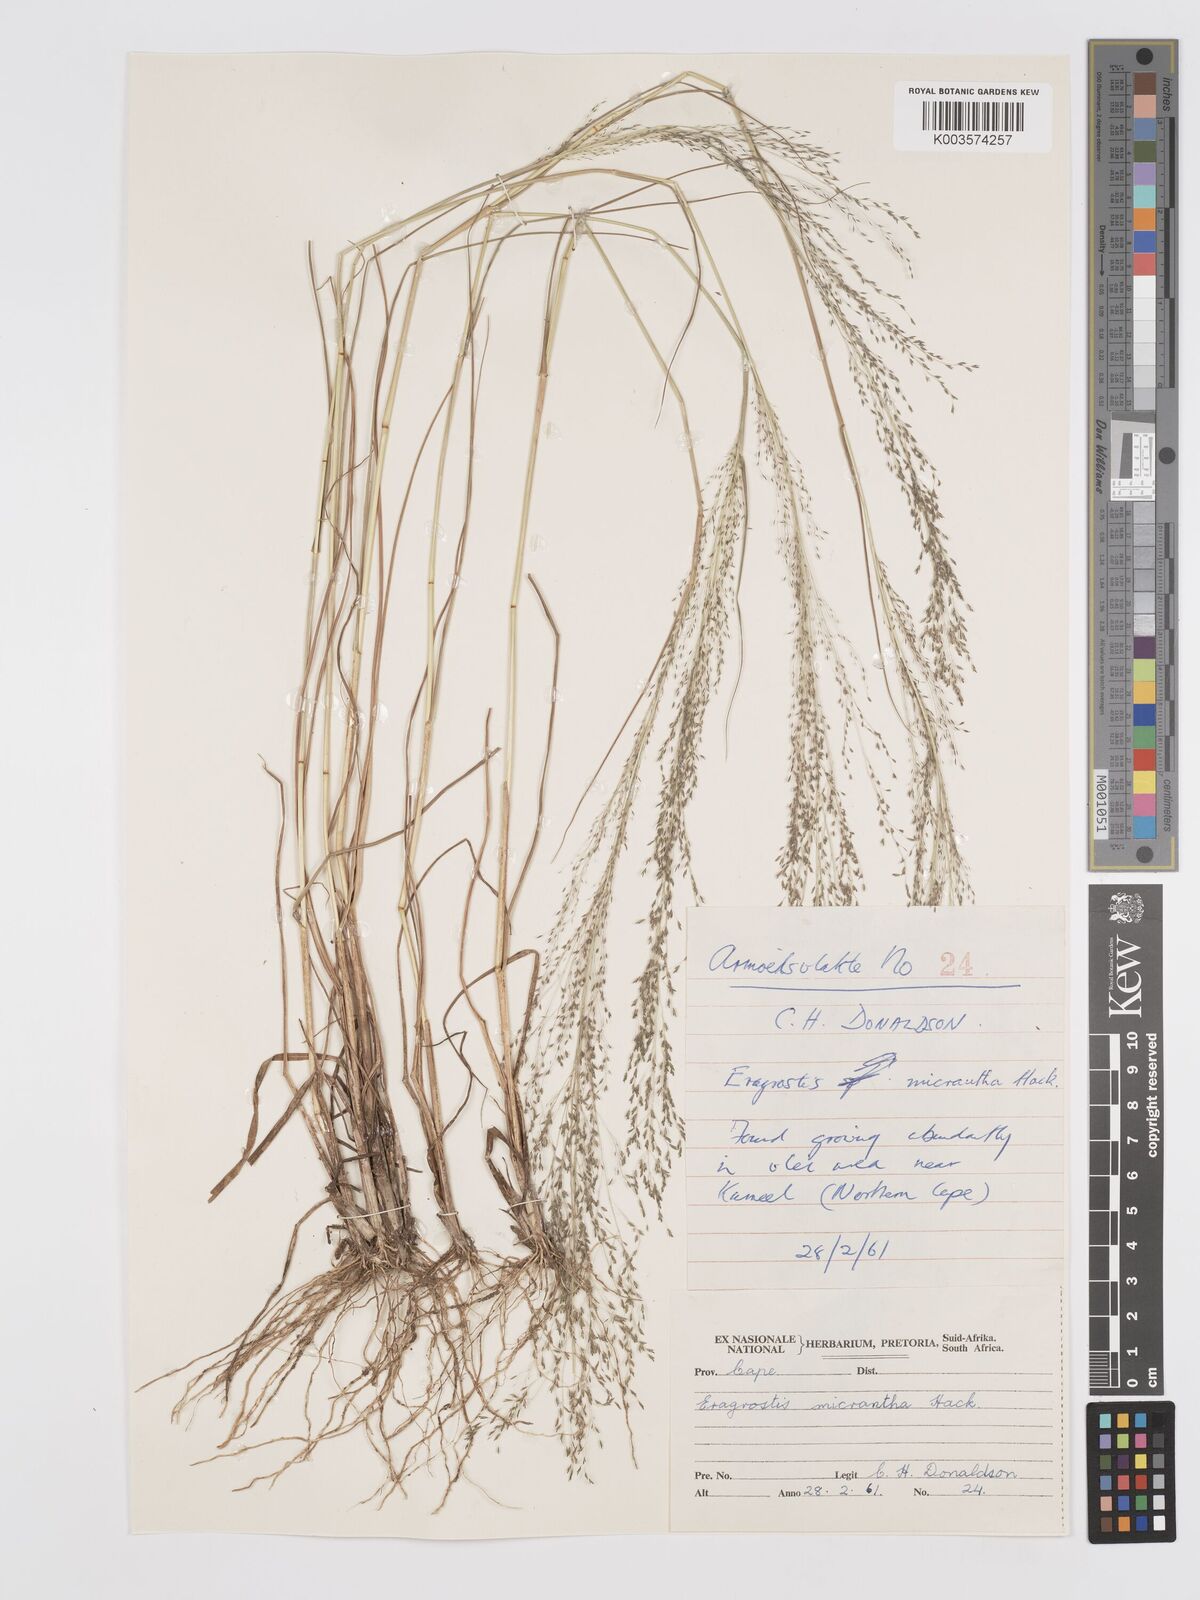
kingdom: Plantae
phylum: Tracheophyta
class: Liliopsida
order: Poales
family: Poaceae
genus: Eragrostis
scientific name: Eragrostis micrantha
